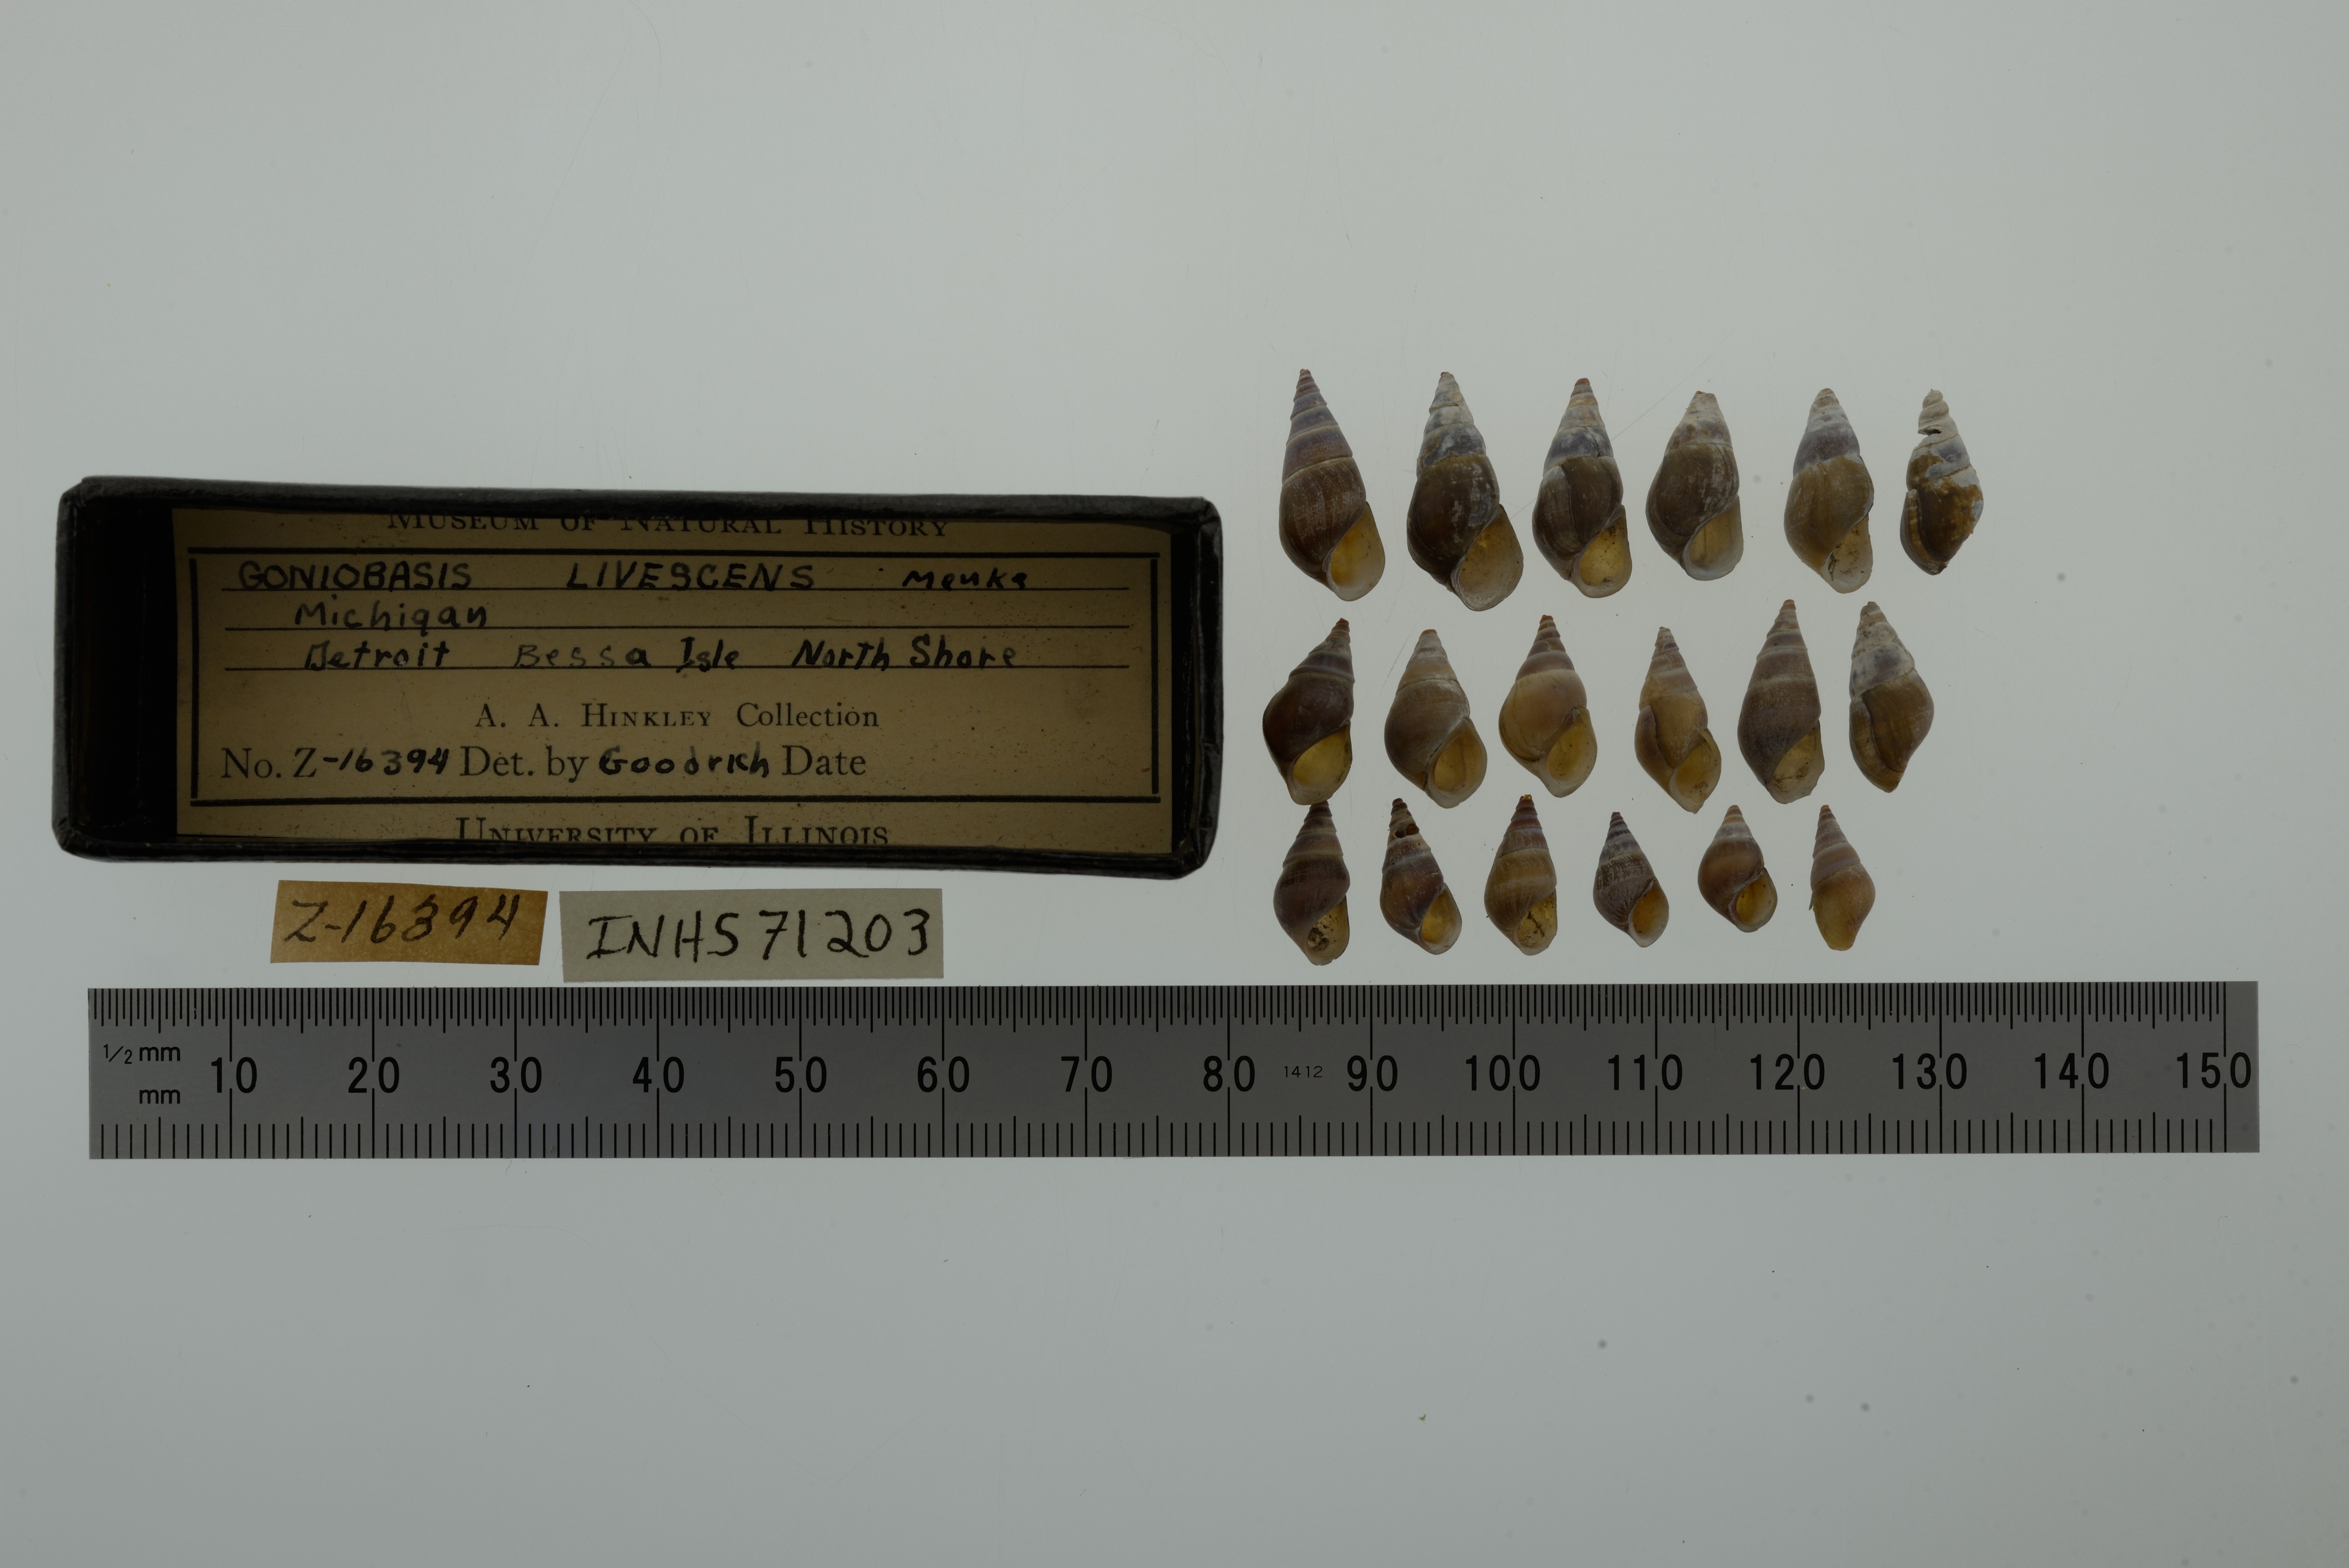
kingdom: Animalia
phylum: Mollusca
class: Gastropoda
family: Pleuroceridae
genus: Elimia
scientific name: Elimia livescens
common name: Liver elimia
